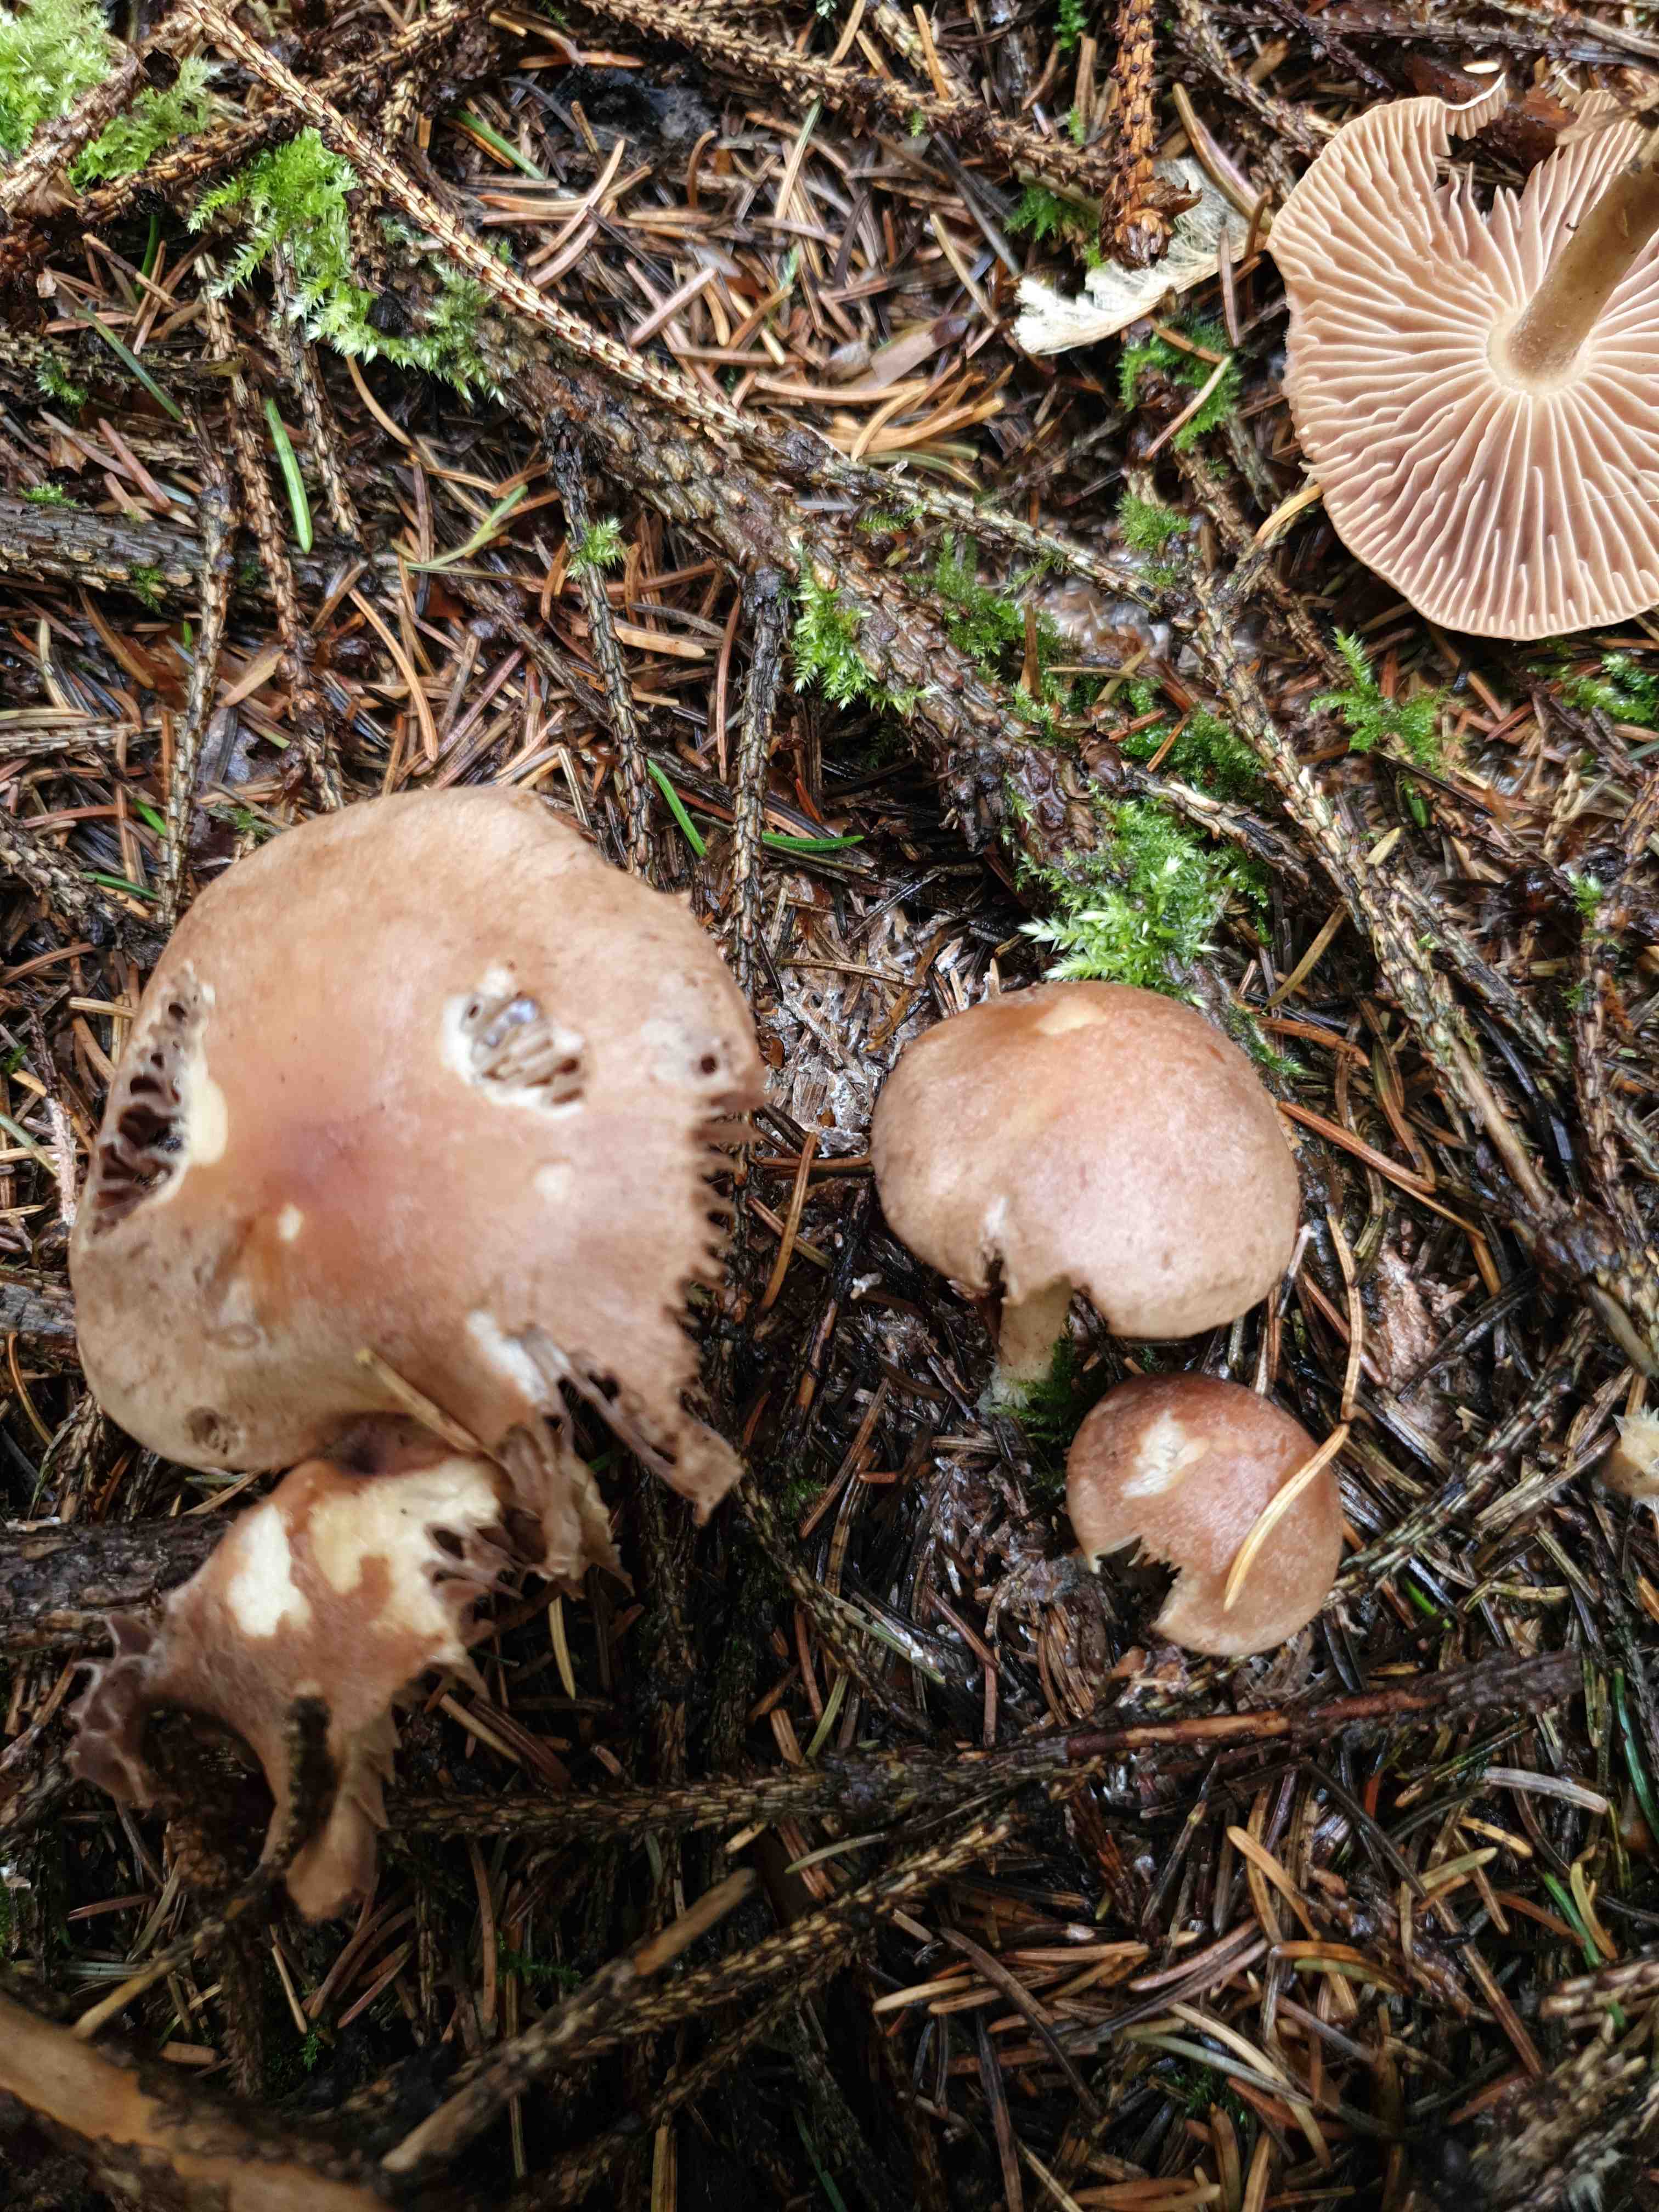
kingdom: Fungi
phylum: Basidiomycota
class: Agaricomycetes
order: Agaricales
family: Omphalotaceae
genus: Collybiopsis
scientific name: Collybiopsis peronata
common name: bestøvlet fladhat
